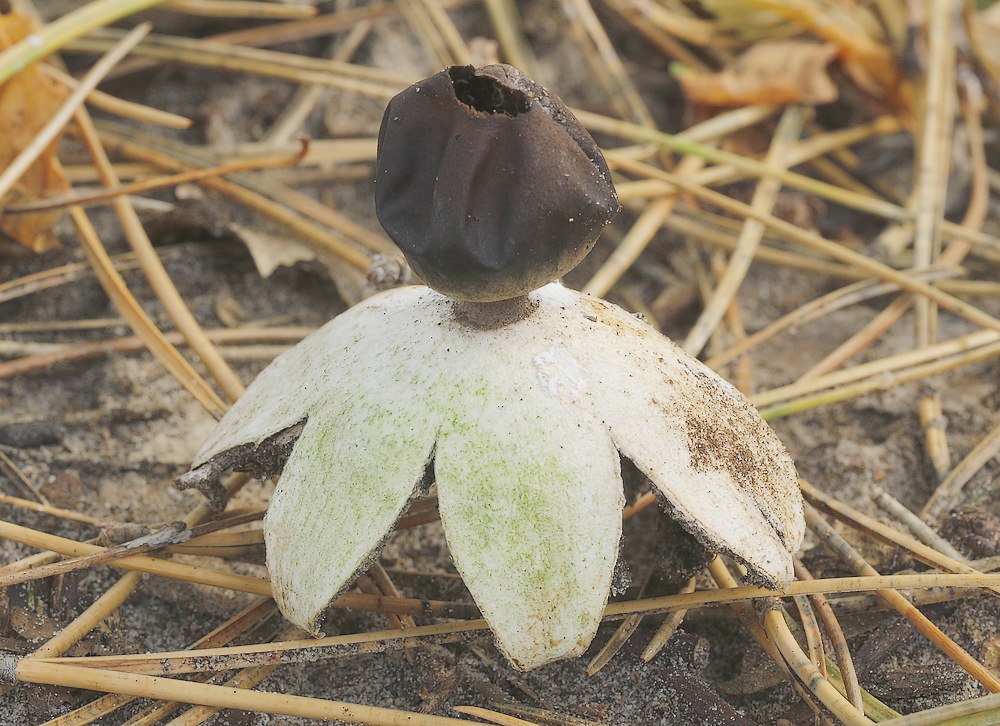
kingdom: Fungi
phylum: Basidiomycota
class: Agaricomycetes
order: Geastrales
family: Geastraceae
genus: Geastrum
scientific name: Geastrum coronatum
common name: mørk stjernebold
